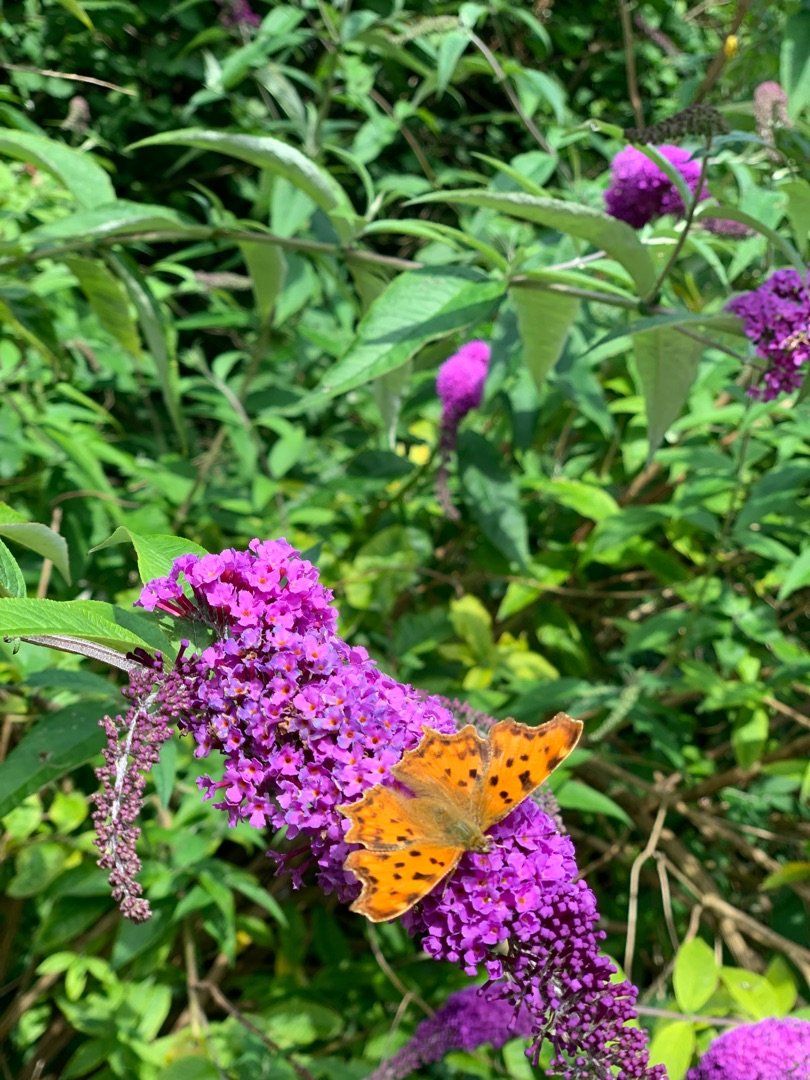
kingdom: Animalia
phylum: Arthropoda
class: Insecta
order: Lepidoptera
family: Nymphalidae
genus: Polygonia
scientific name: Polygonia c-album
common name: Det hvide C
